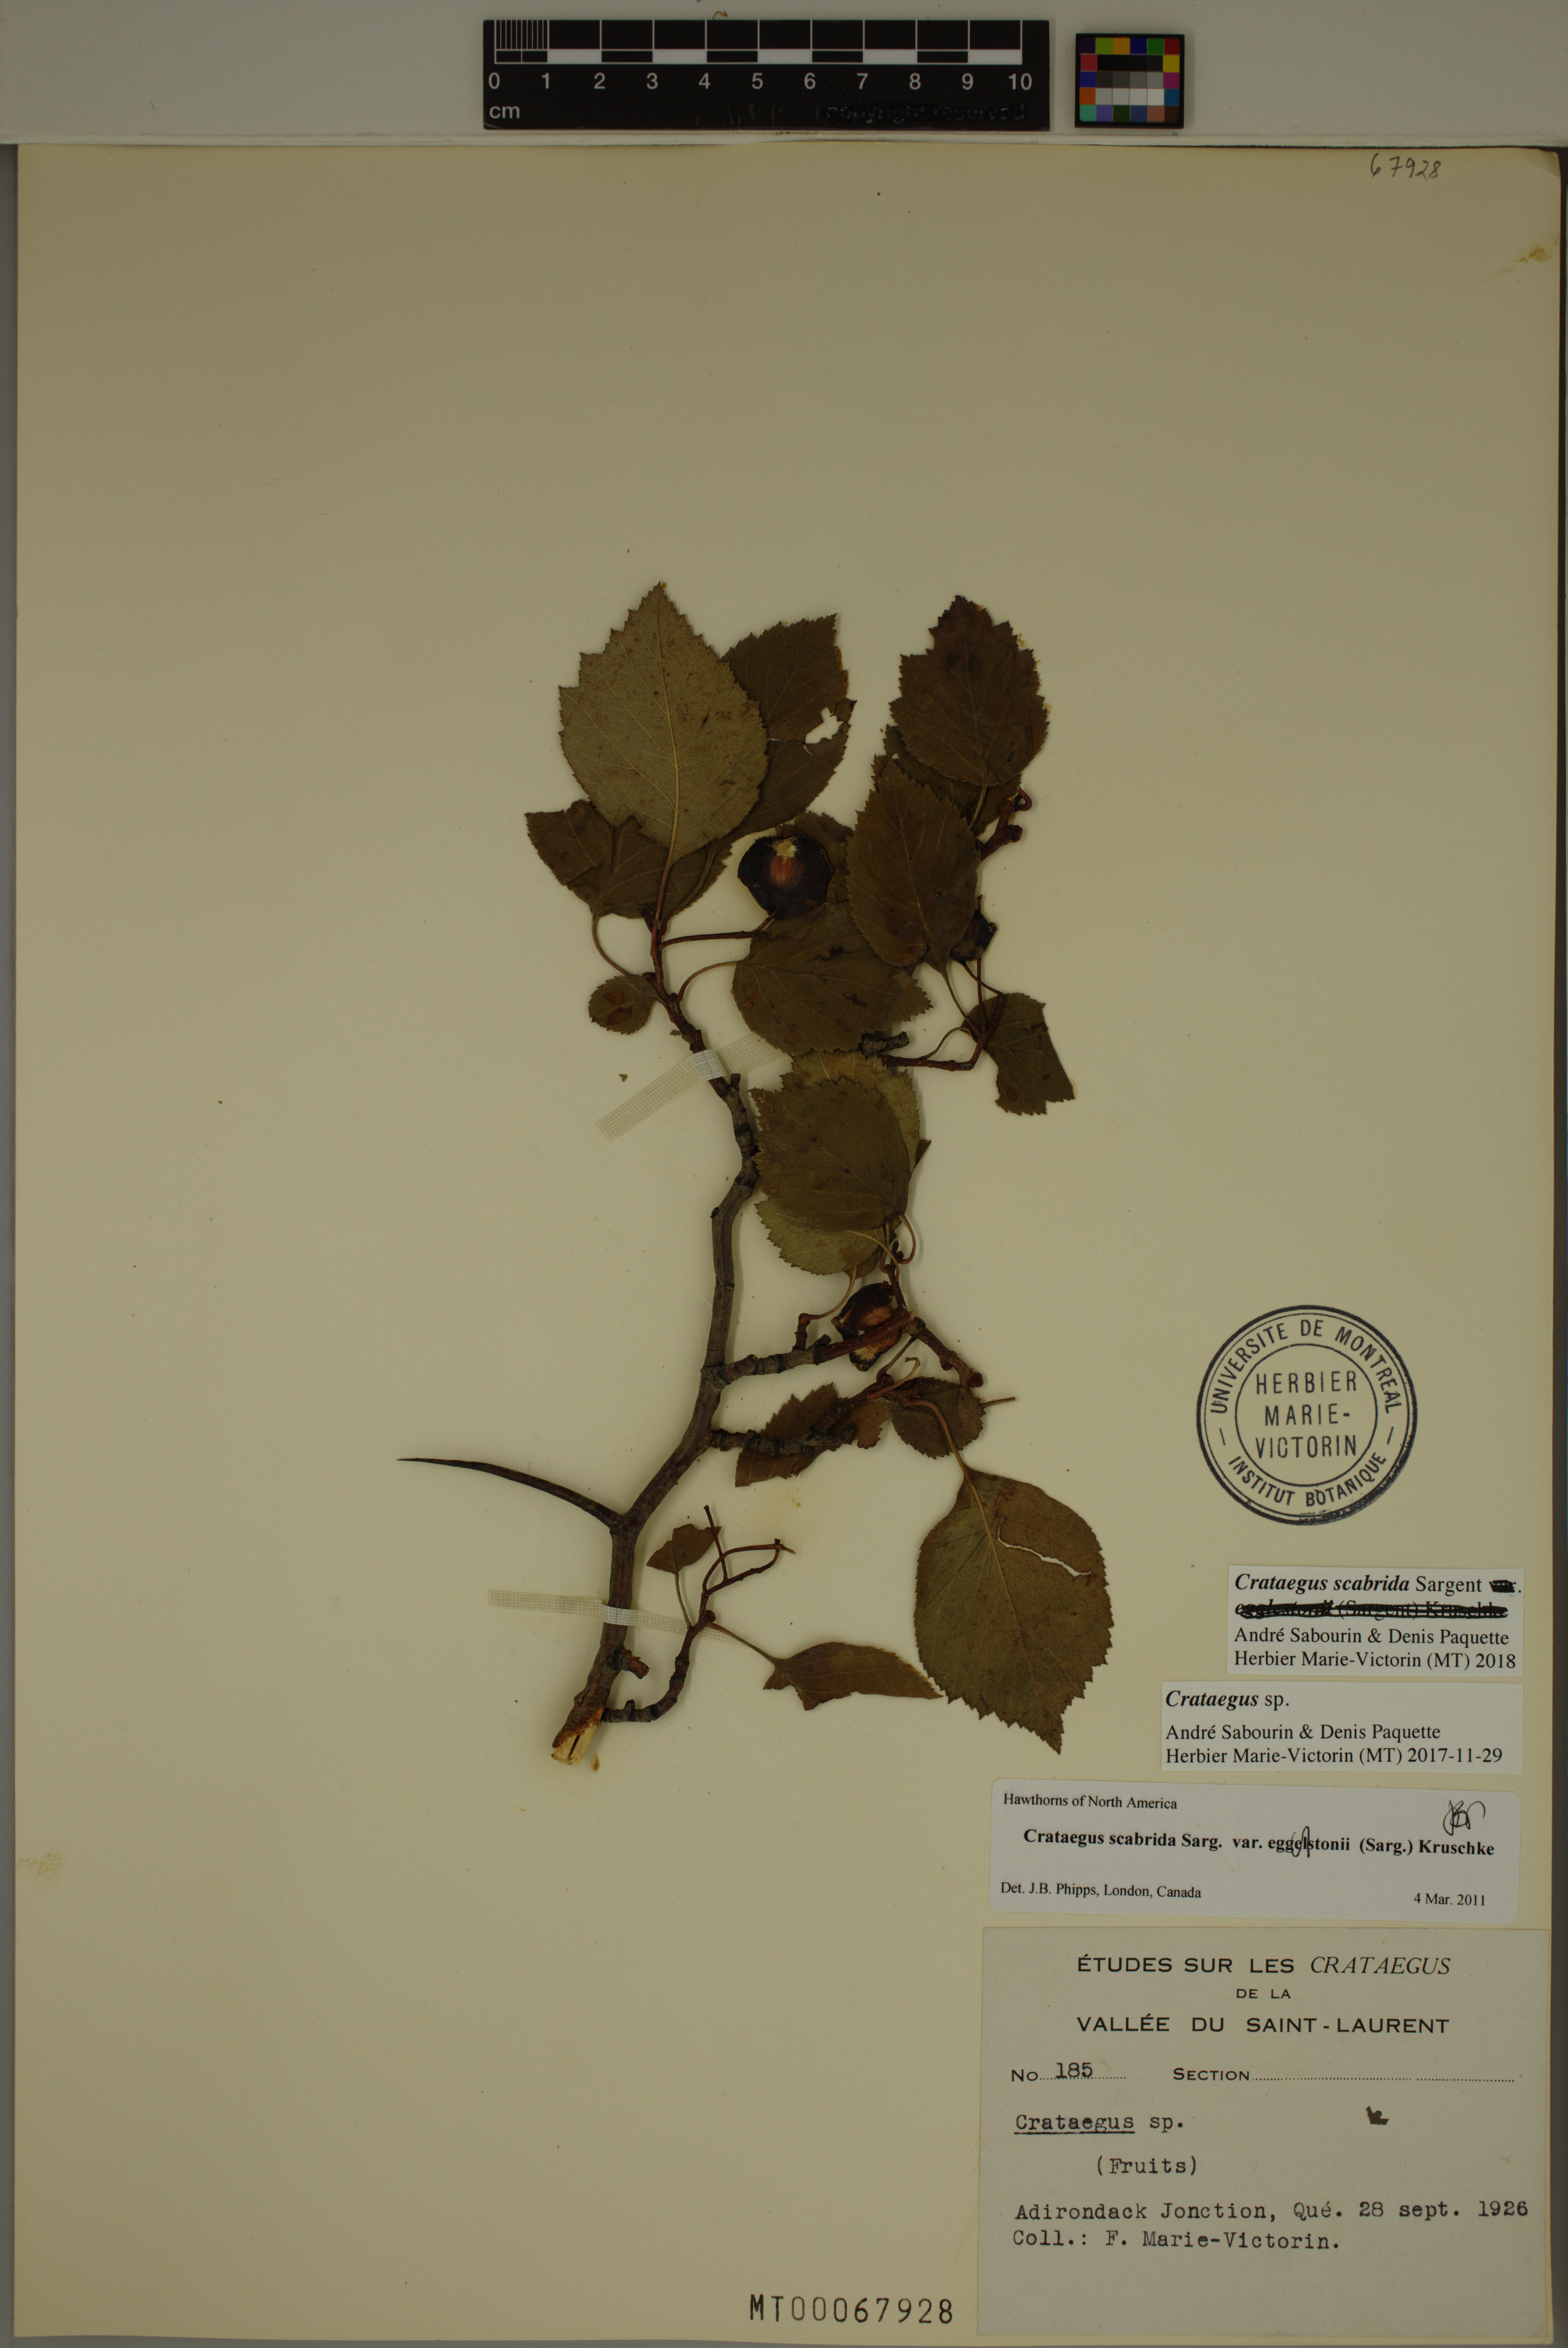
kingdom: Plantae
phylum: Tracheophyta
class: Magnoliopsida
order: Rosales
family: Rosaceae
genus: Crataegus
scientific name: Crataegus scabrida
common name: Rough hawthorn
